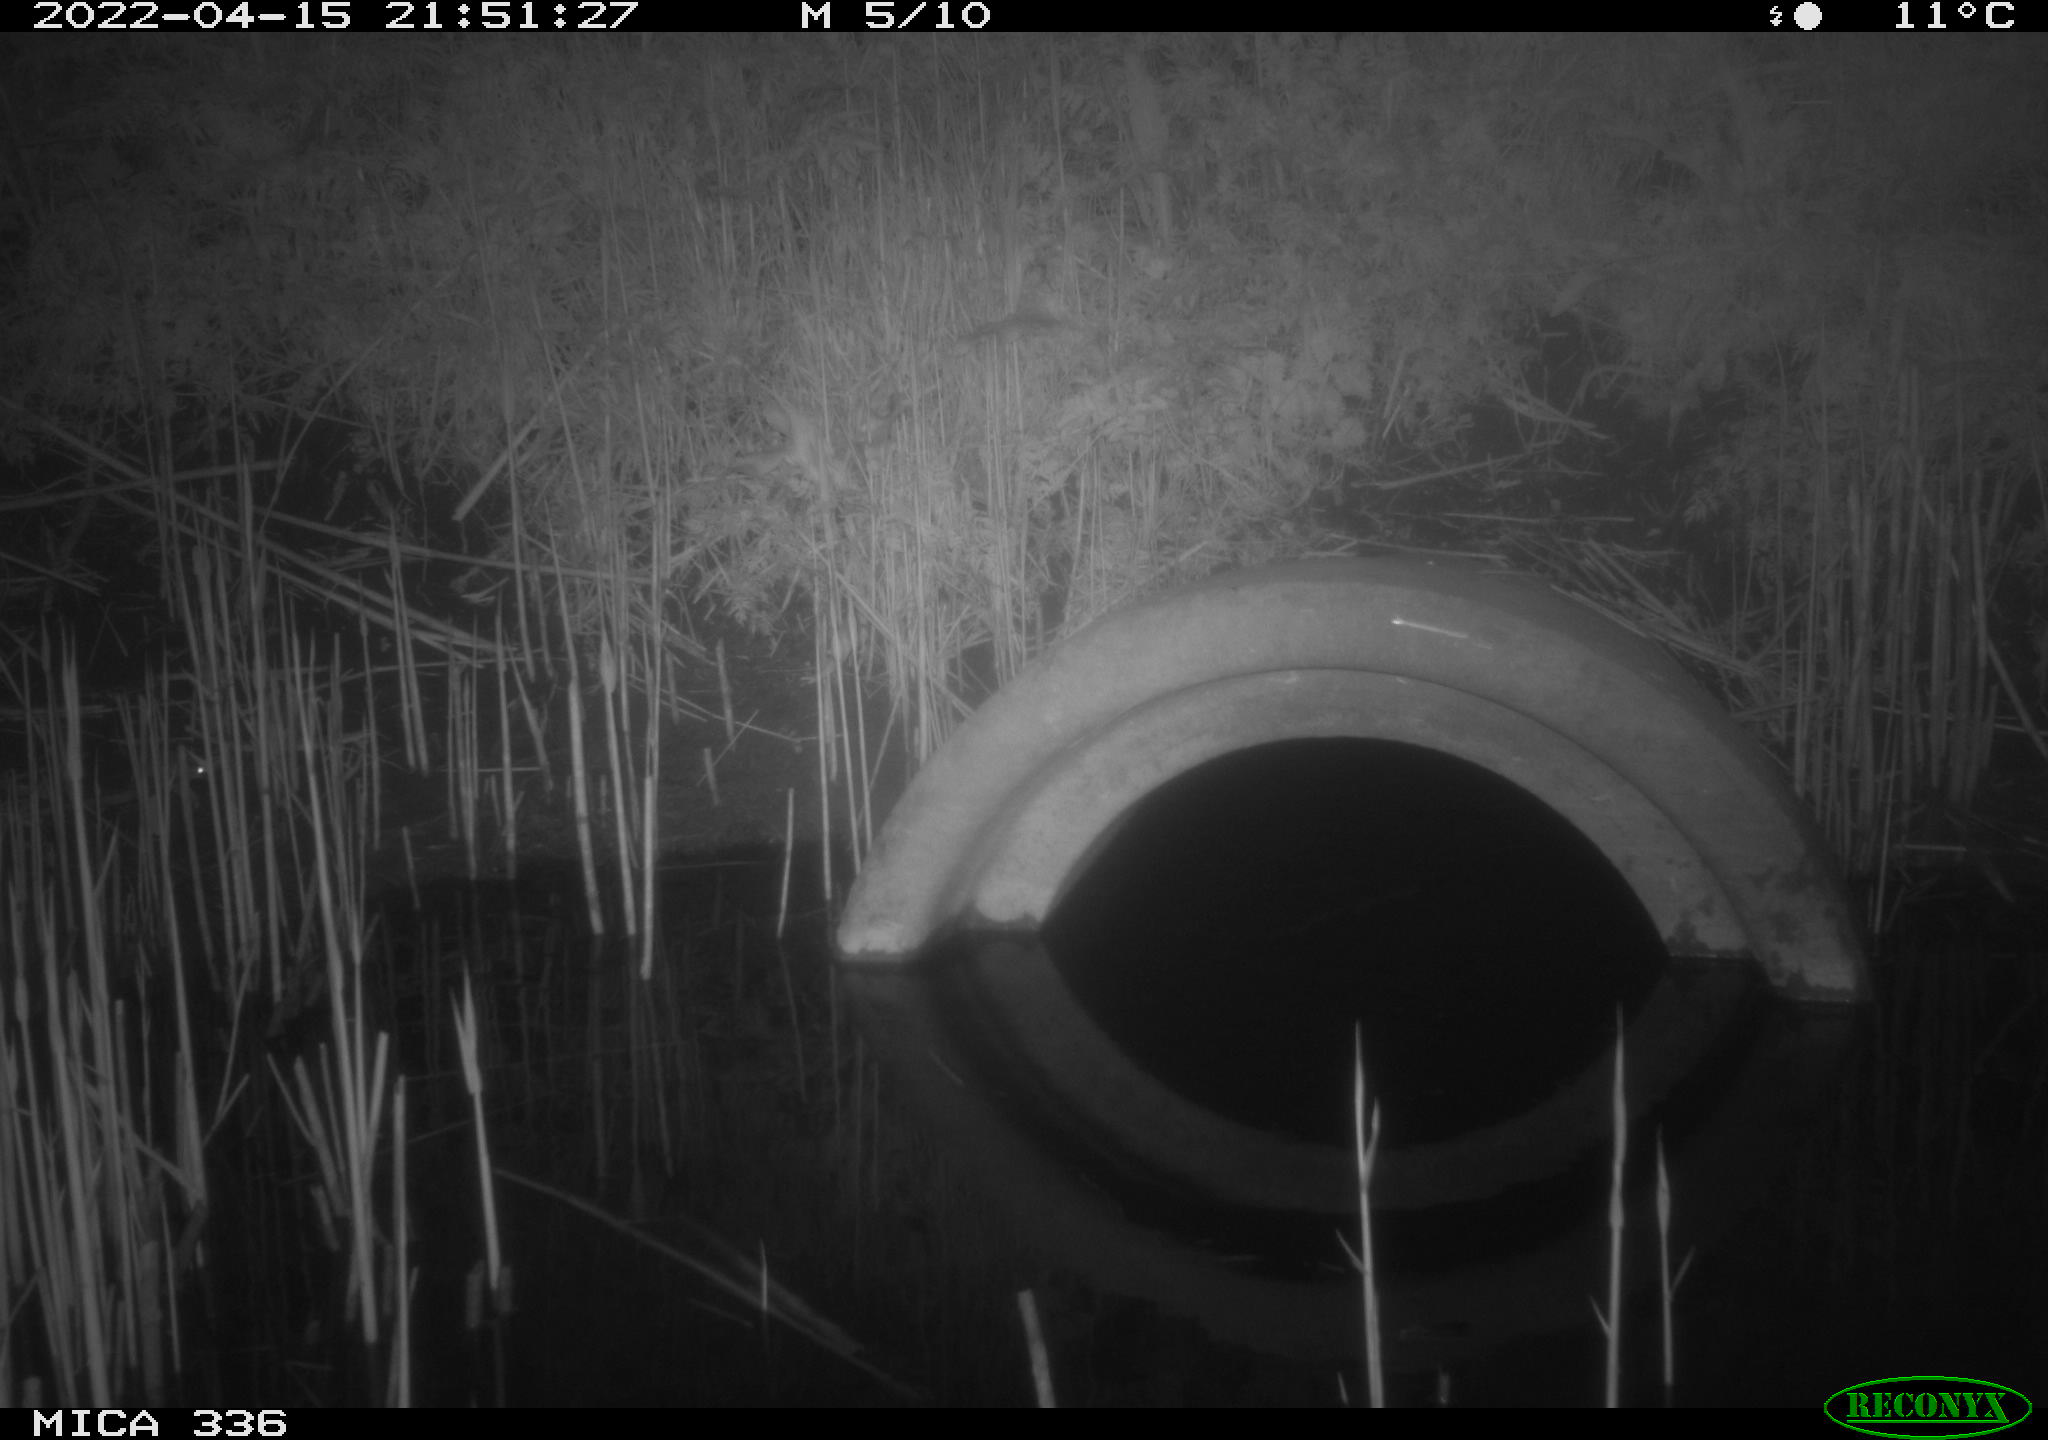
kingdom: Animalia
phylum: Chordata
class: Mammalia
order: Rodentia
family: Muridae
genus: Rattus
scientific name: Rattus norvegicus
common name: Brown rat
